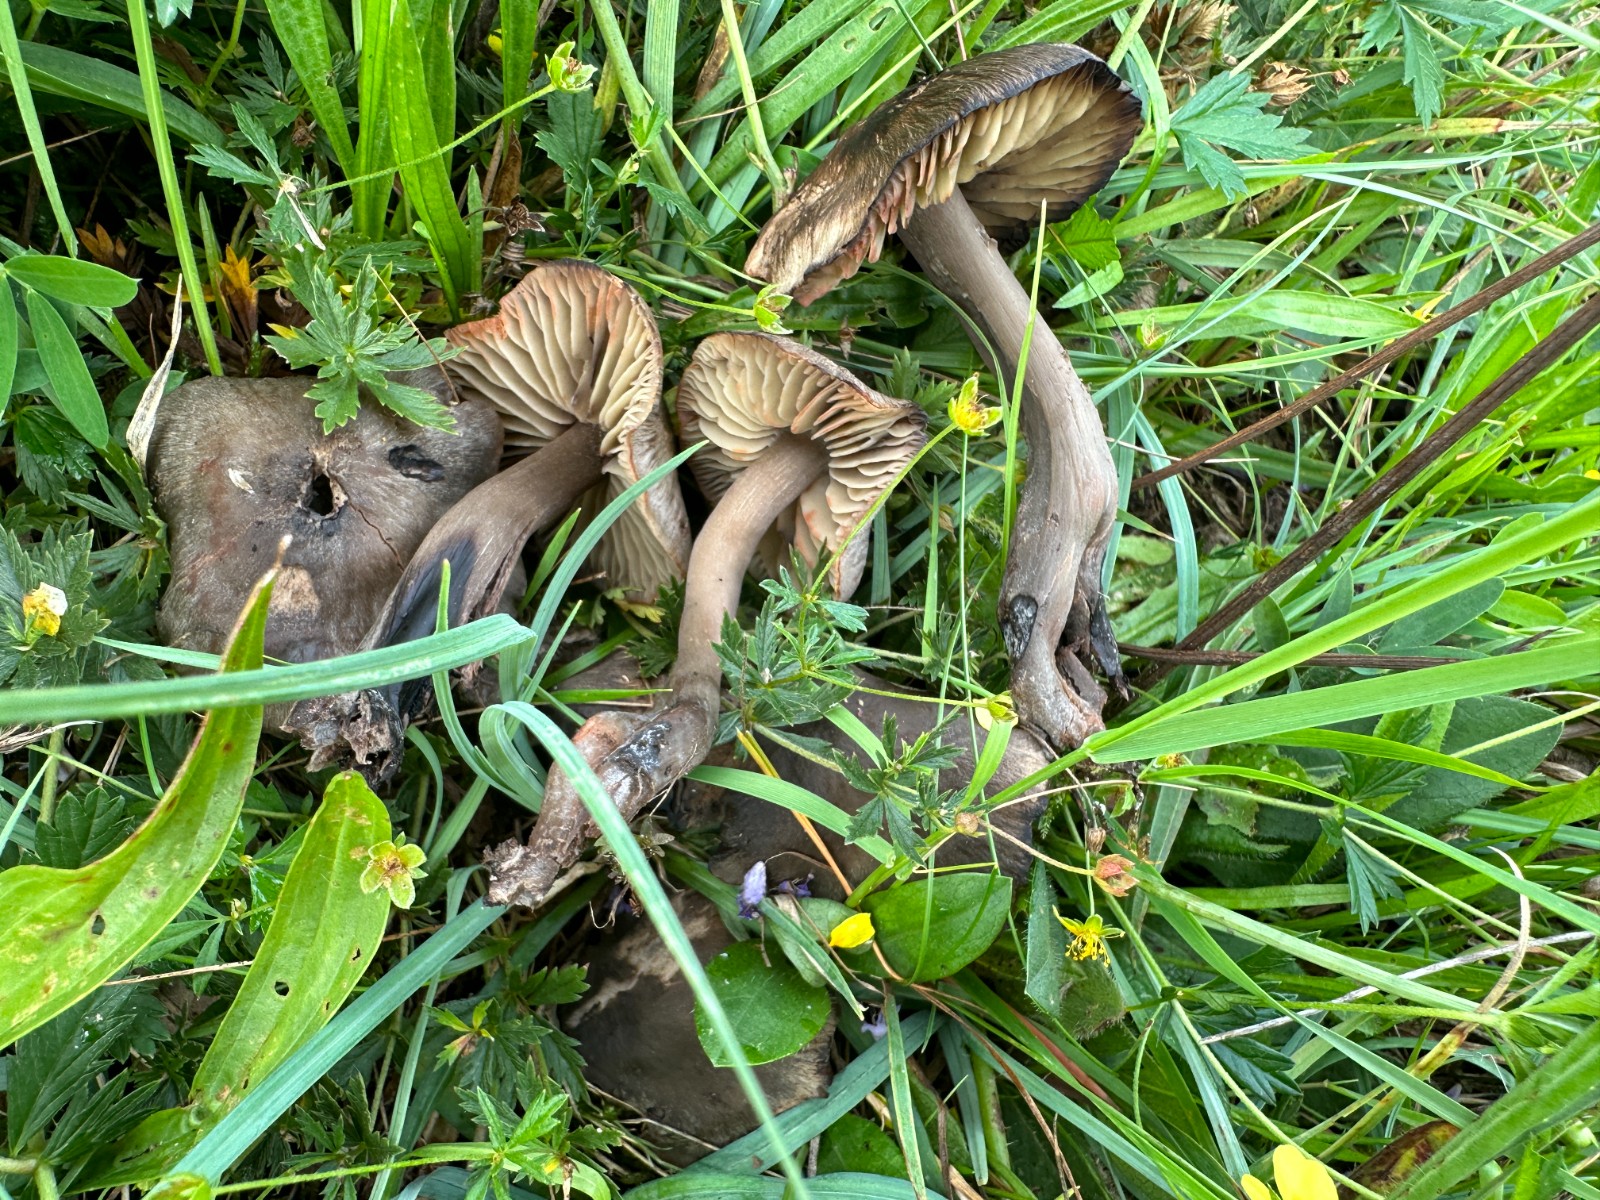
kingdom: Fungi
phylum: Basidiomycota
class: Agaricomycetes
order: Agaricales
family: Hygrophoraceae
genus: Neohygrocybe
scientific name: Neohygrocybe ovina
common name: rødmende vokshat
